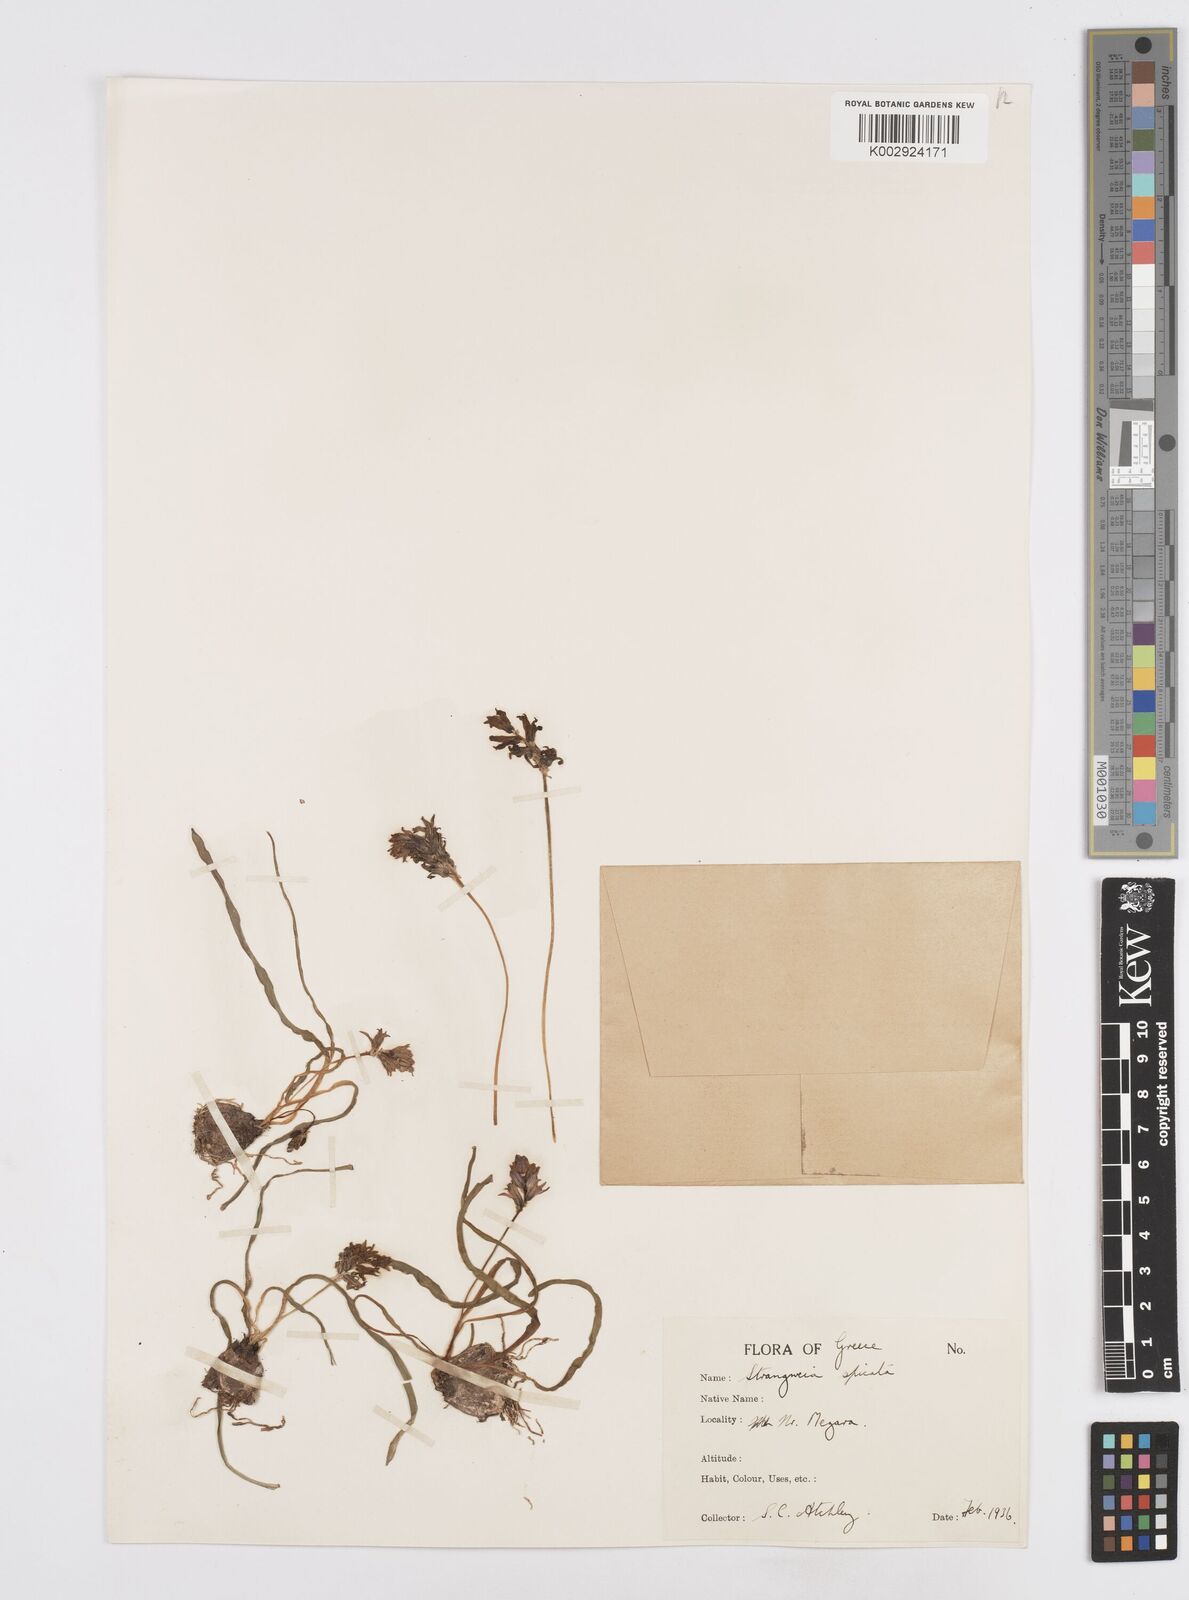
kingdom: Plantae
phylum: Tracheophyta
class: Liliopsida
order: Asparagales
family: Asparagaceae
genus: Bellevalia
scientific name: Bellevalia hyacinthoides
